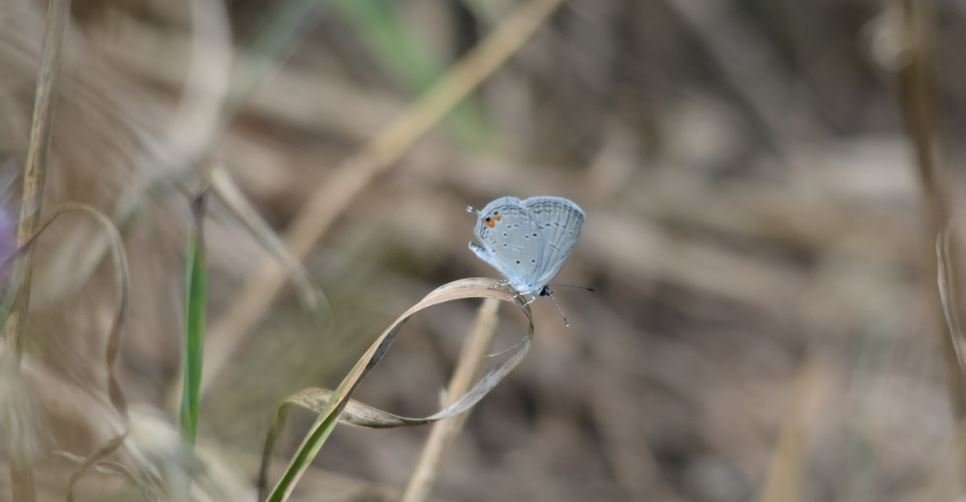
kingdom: Animalia
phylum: Arthropoda
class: Insecta
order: Lepidoptera
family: Lycaenidae
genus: Elkalyce
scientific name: Elkalyce comyntas
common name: Eastern Tailed-Blue
